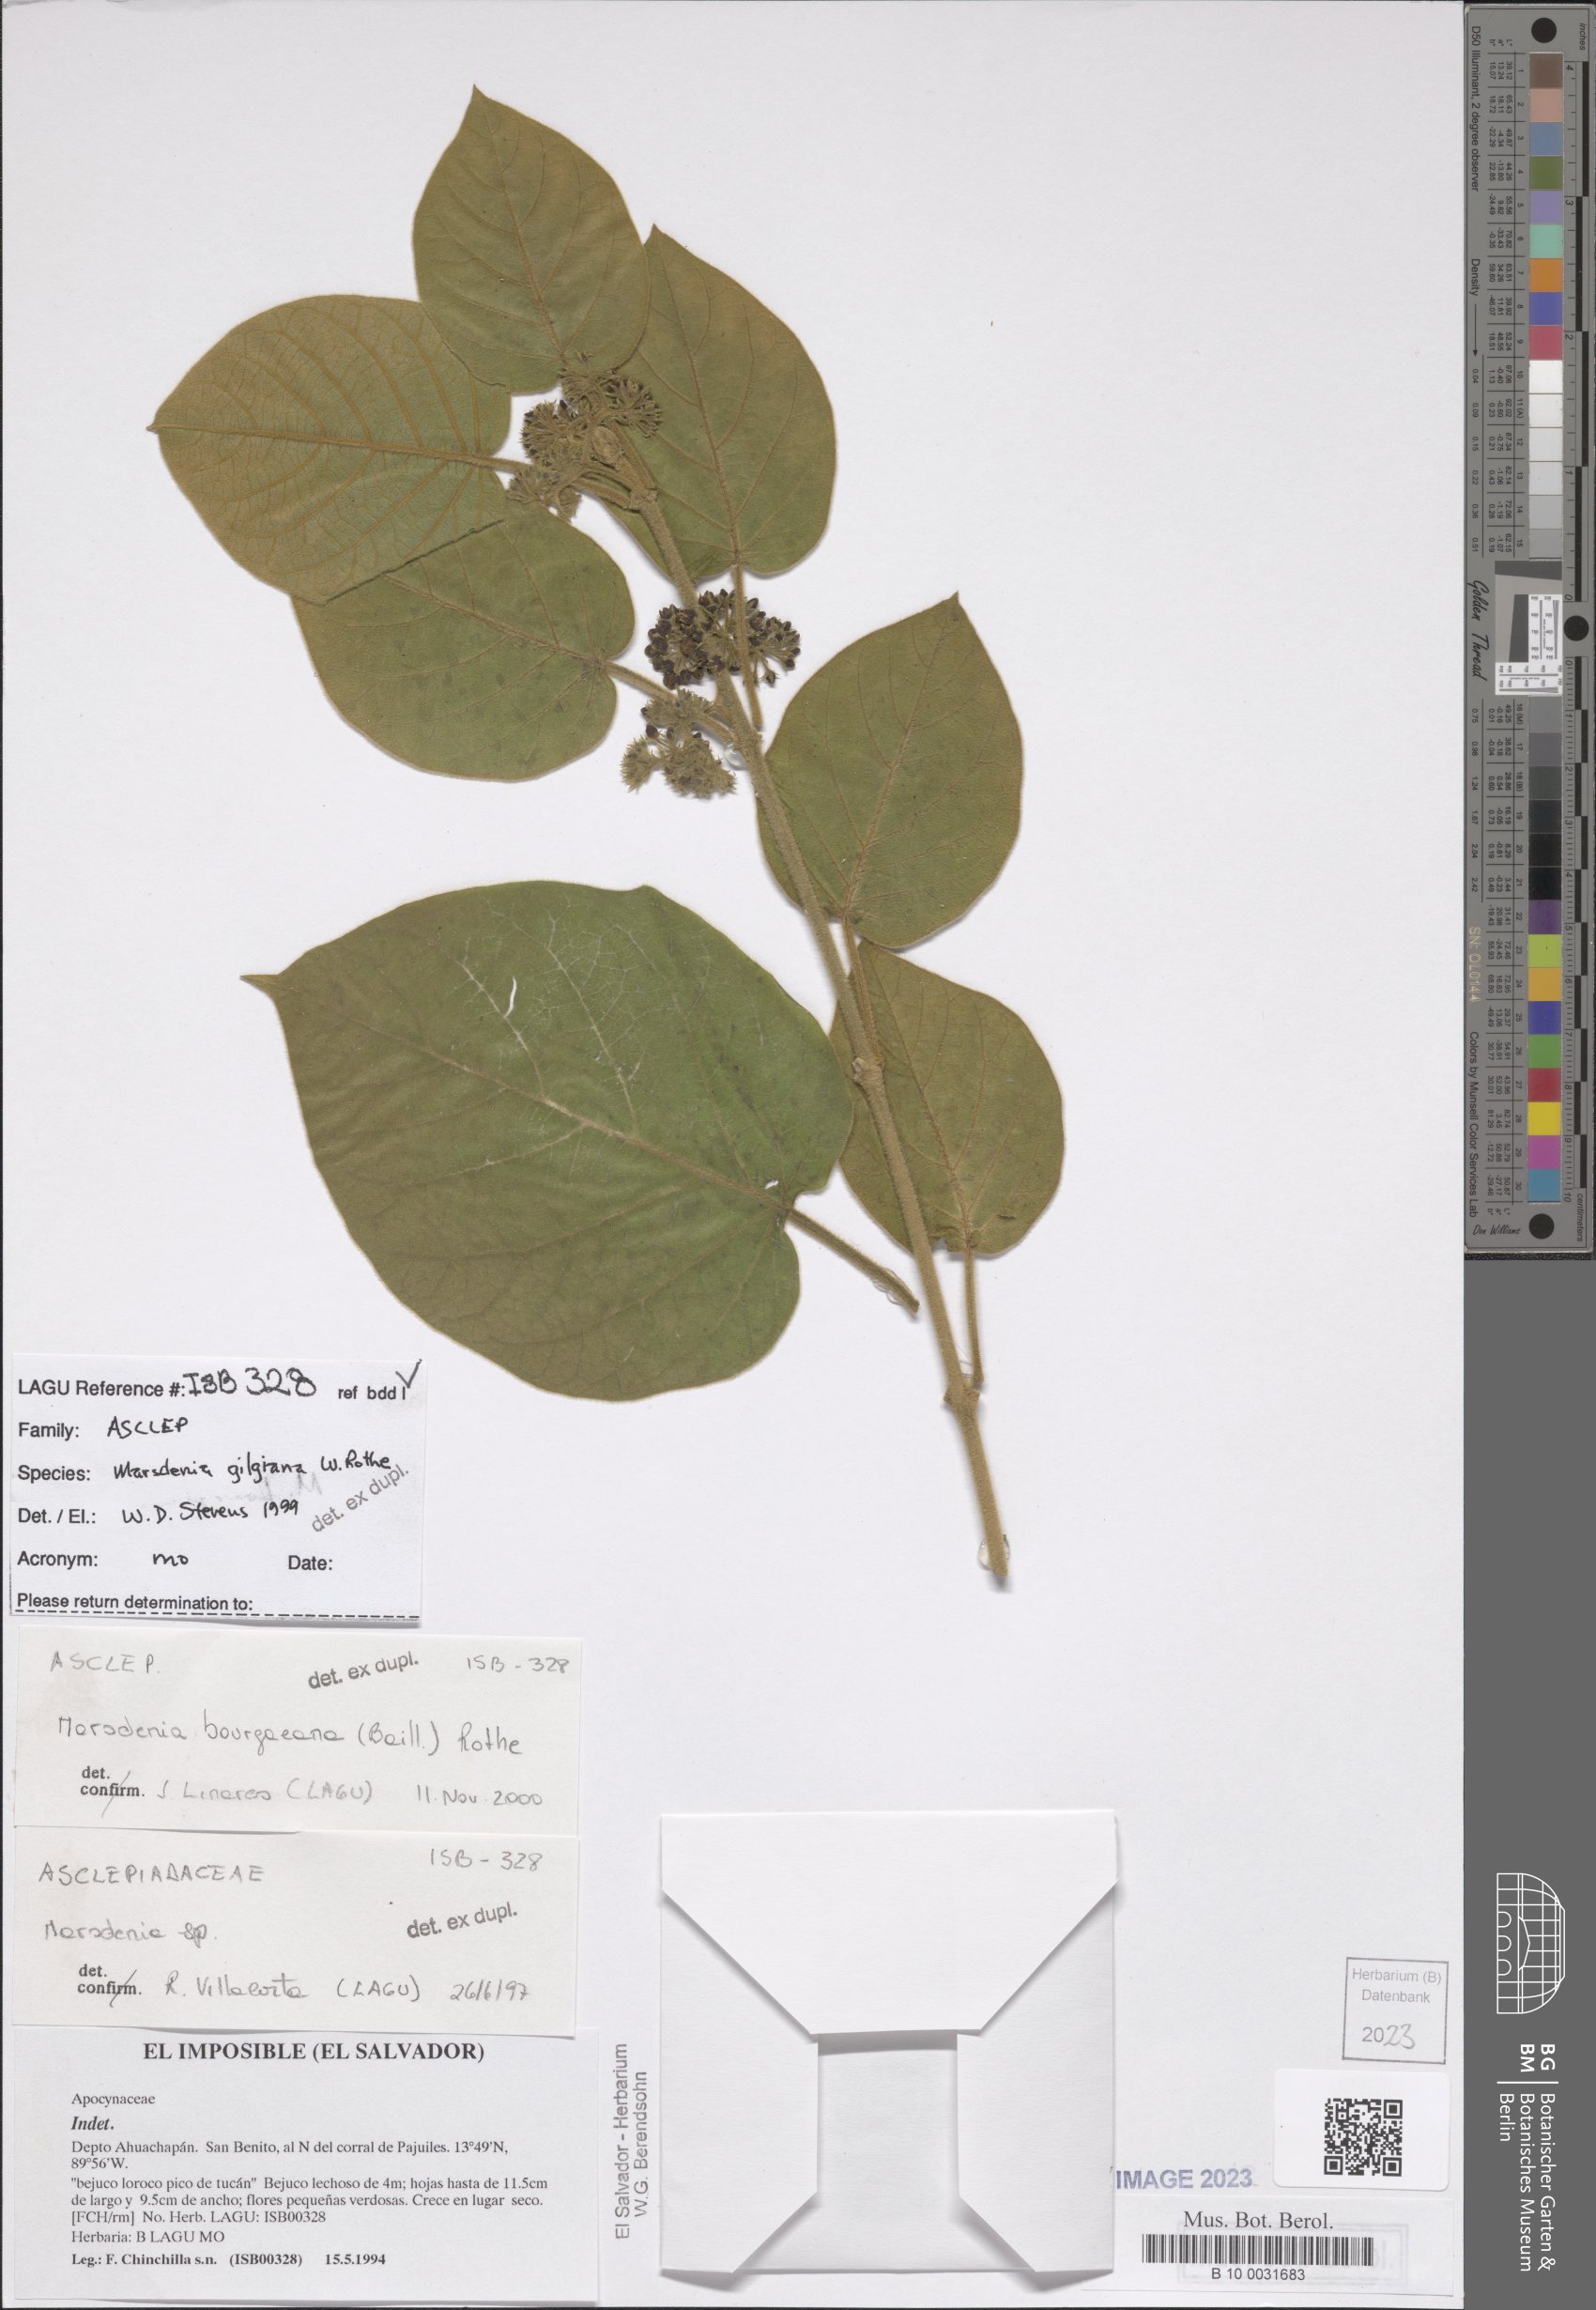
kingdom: Plantae
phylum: Tracheophyta
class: Magnoliopsida
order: Gentianales
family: Apocynaceae
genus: Ruehssia
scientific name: Ruehssia gilgiana
